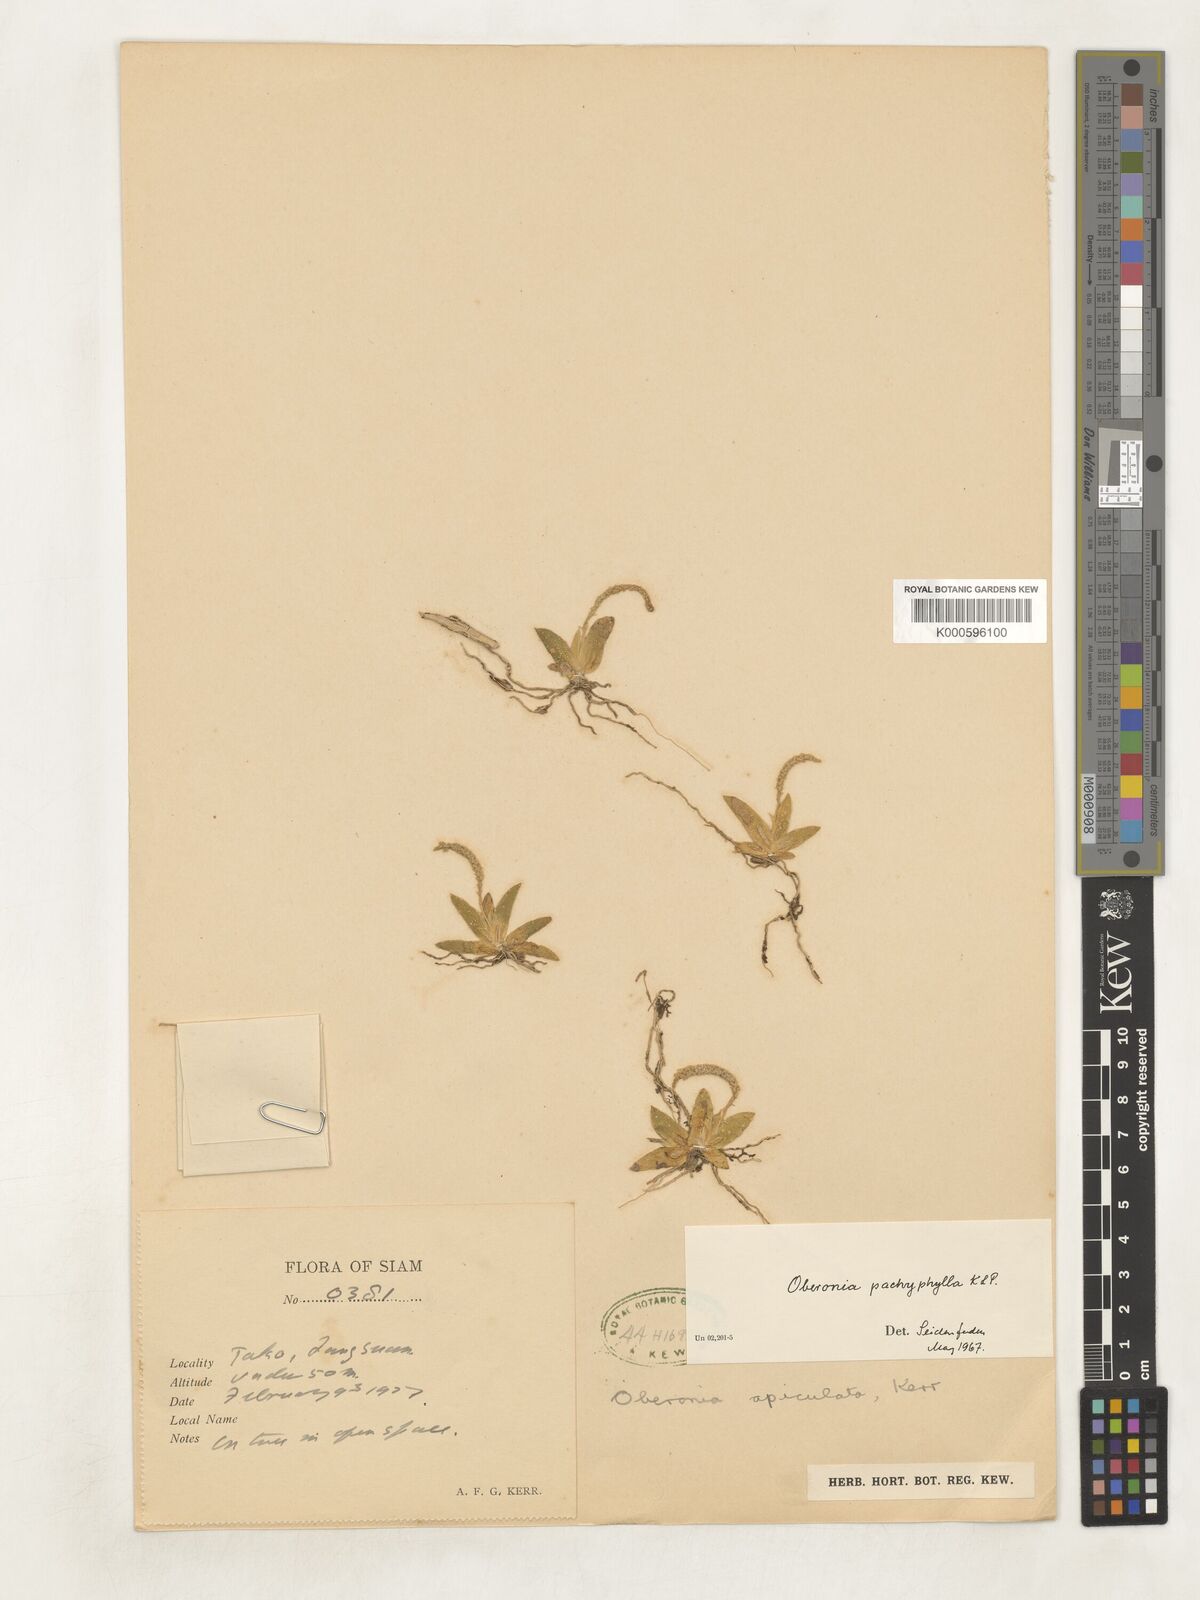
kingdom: Plantae
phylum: Tracheophyta
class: Liliopsida
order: Asparagales
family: Orchidaceae
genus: Oberonia
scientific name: Oberonia pachyphylla
